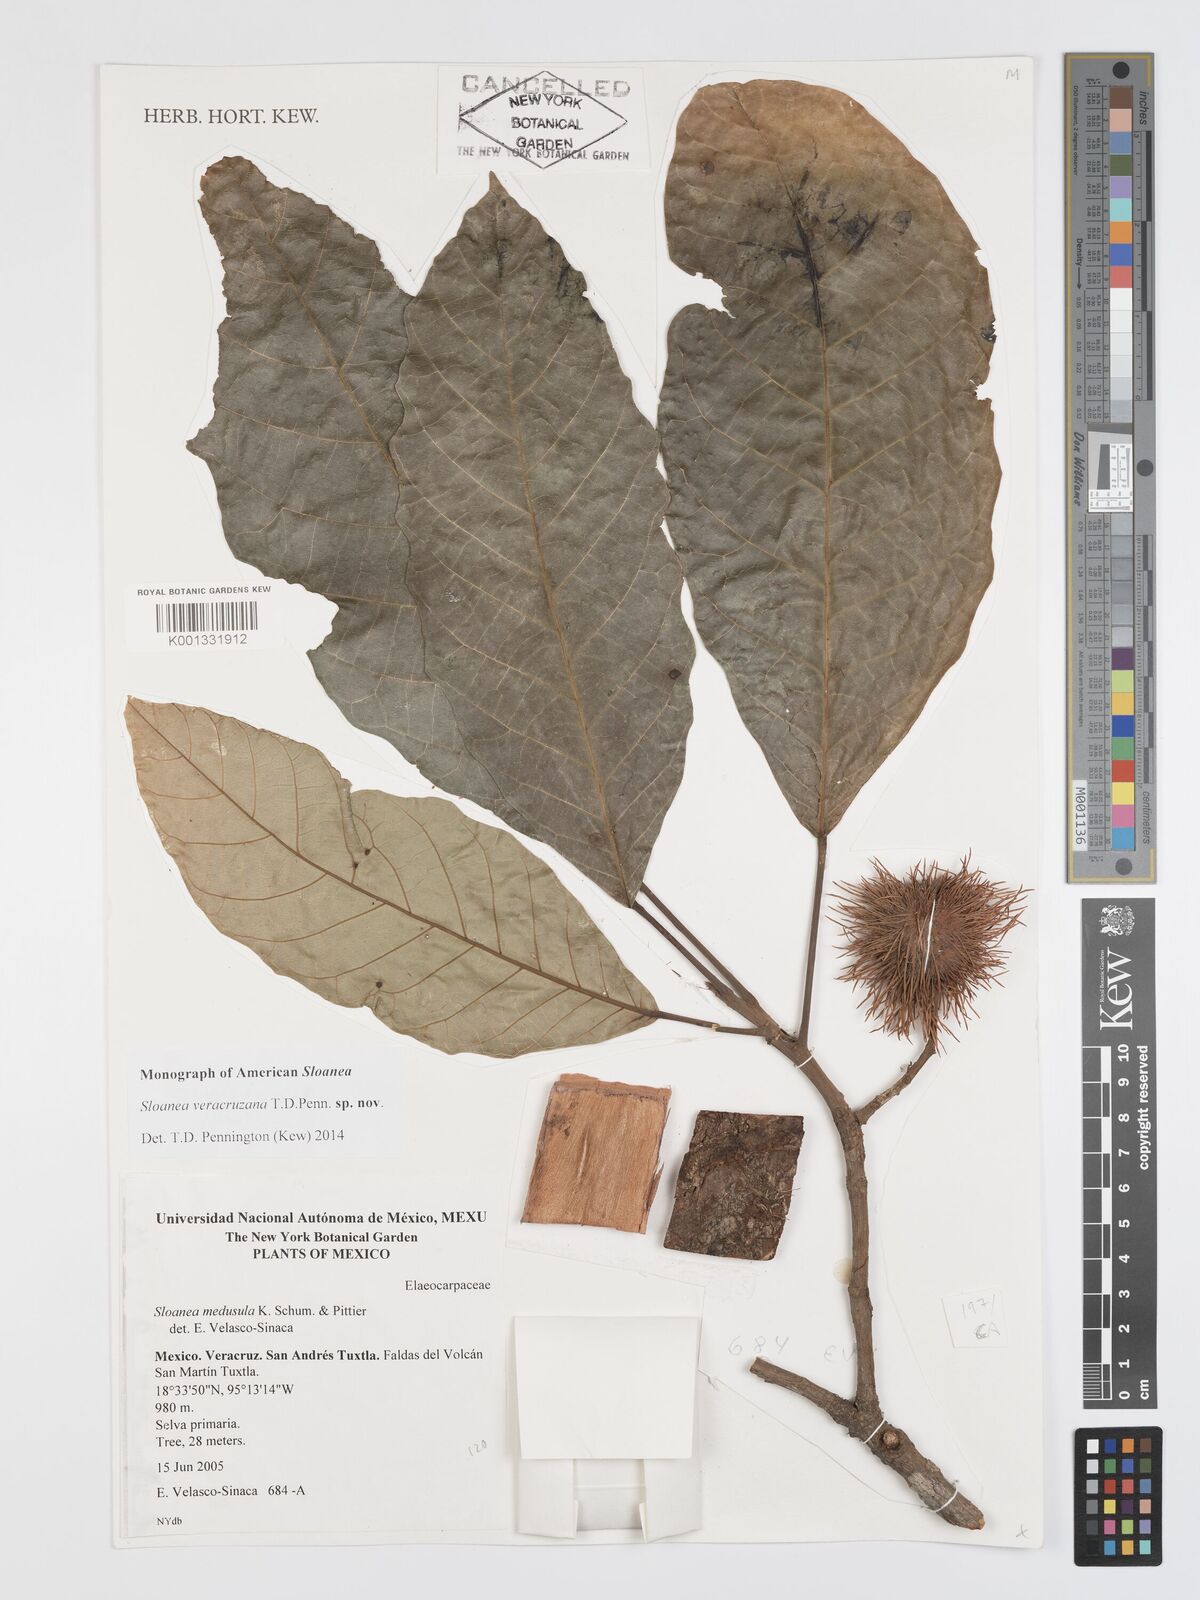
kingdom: Plantae
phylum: Tracheophyta
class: Magnoliopsida
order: Oxalidales
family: Elaeocarpaceae
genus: Sloanea
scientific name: Sloanea veracruzana
